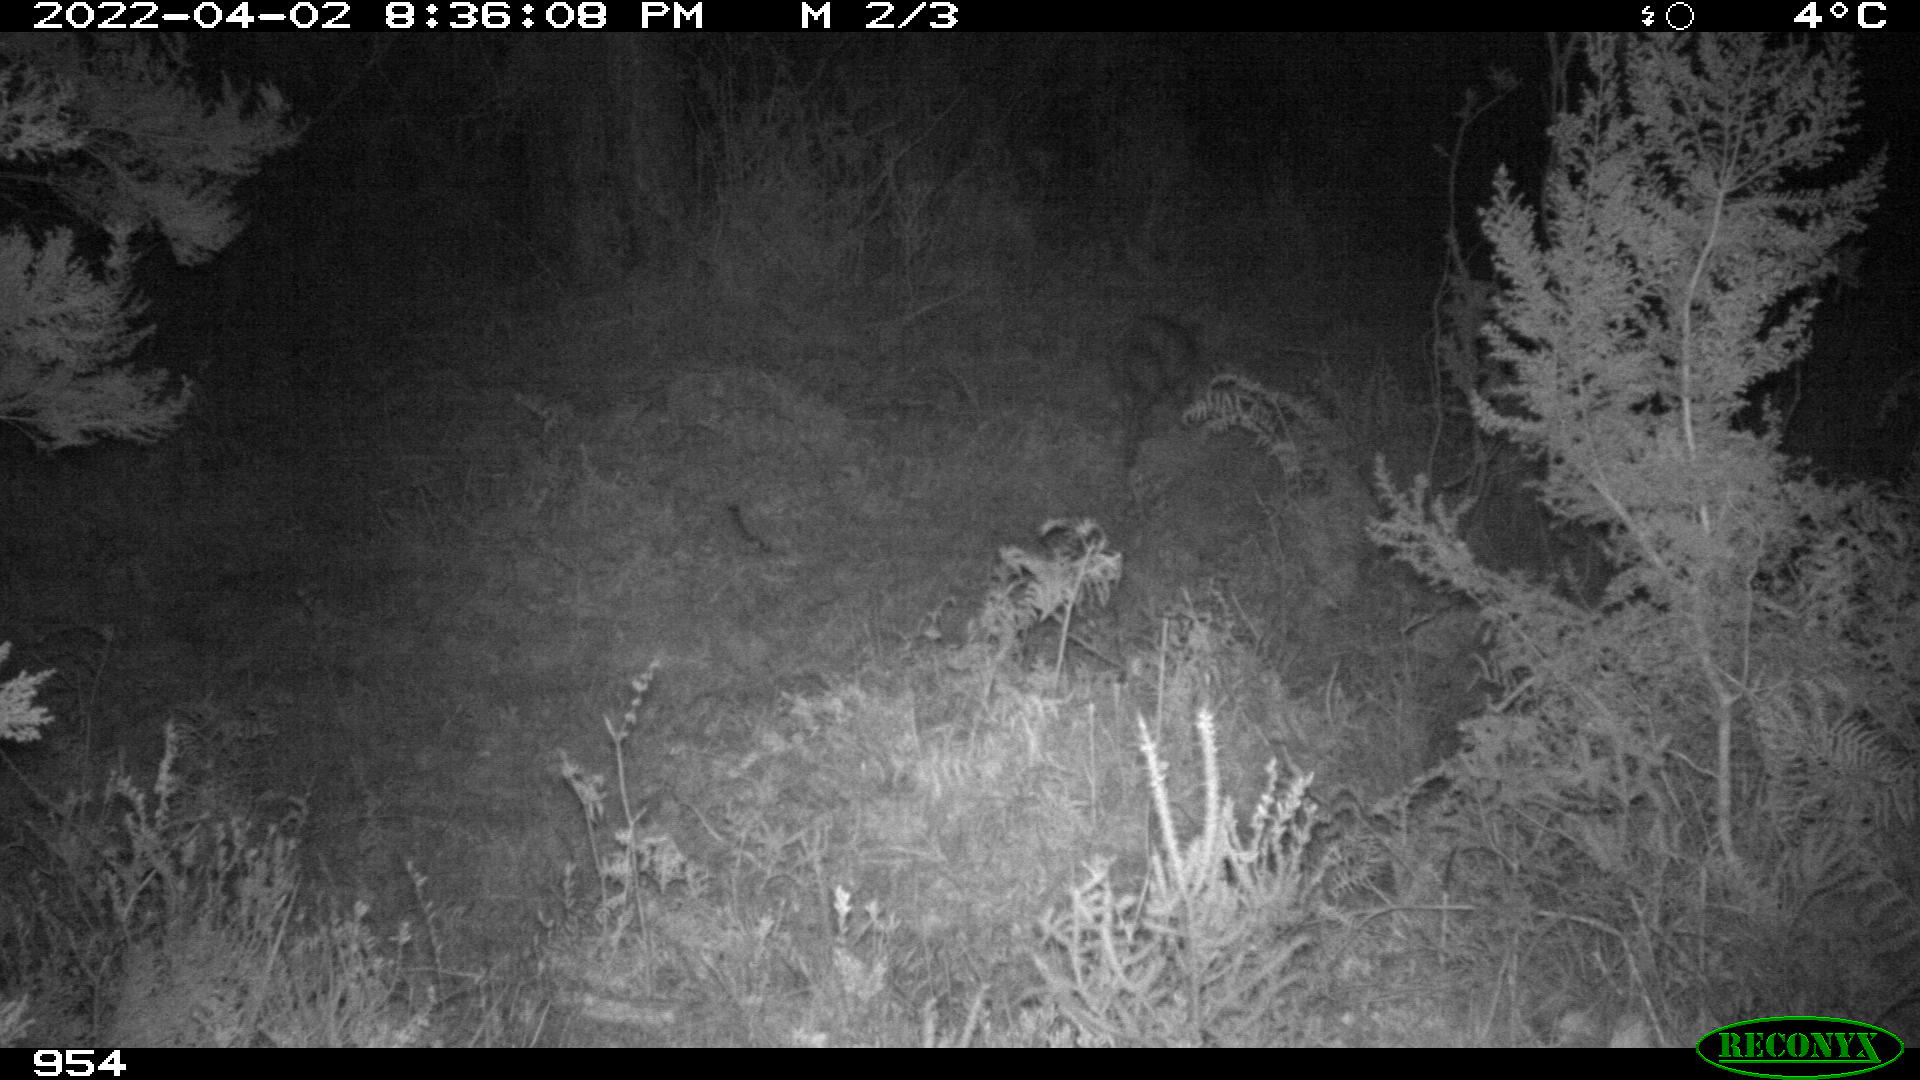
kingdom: Animalia
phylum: Chordata
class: Mammalia
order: Carnivora
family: Canidae
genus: Vulpes
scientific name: Vulpes vulpes
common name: Red fox
